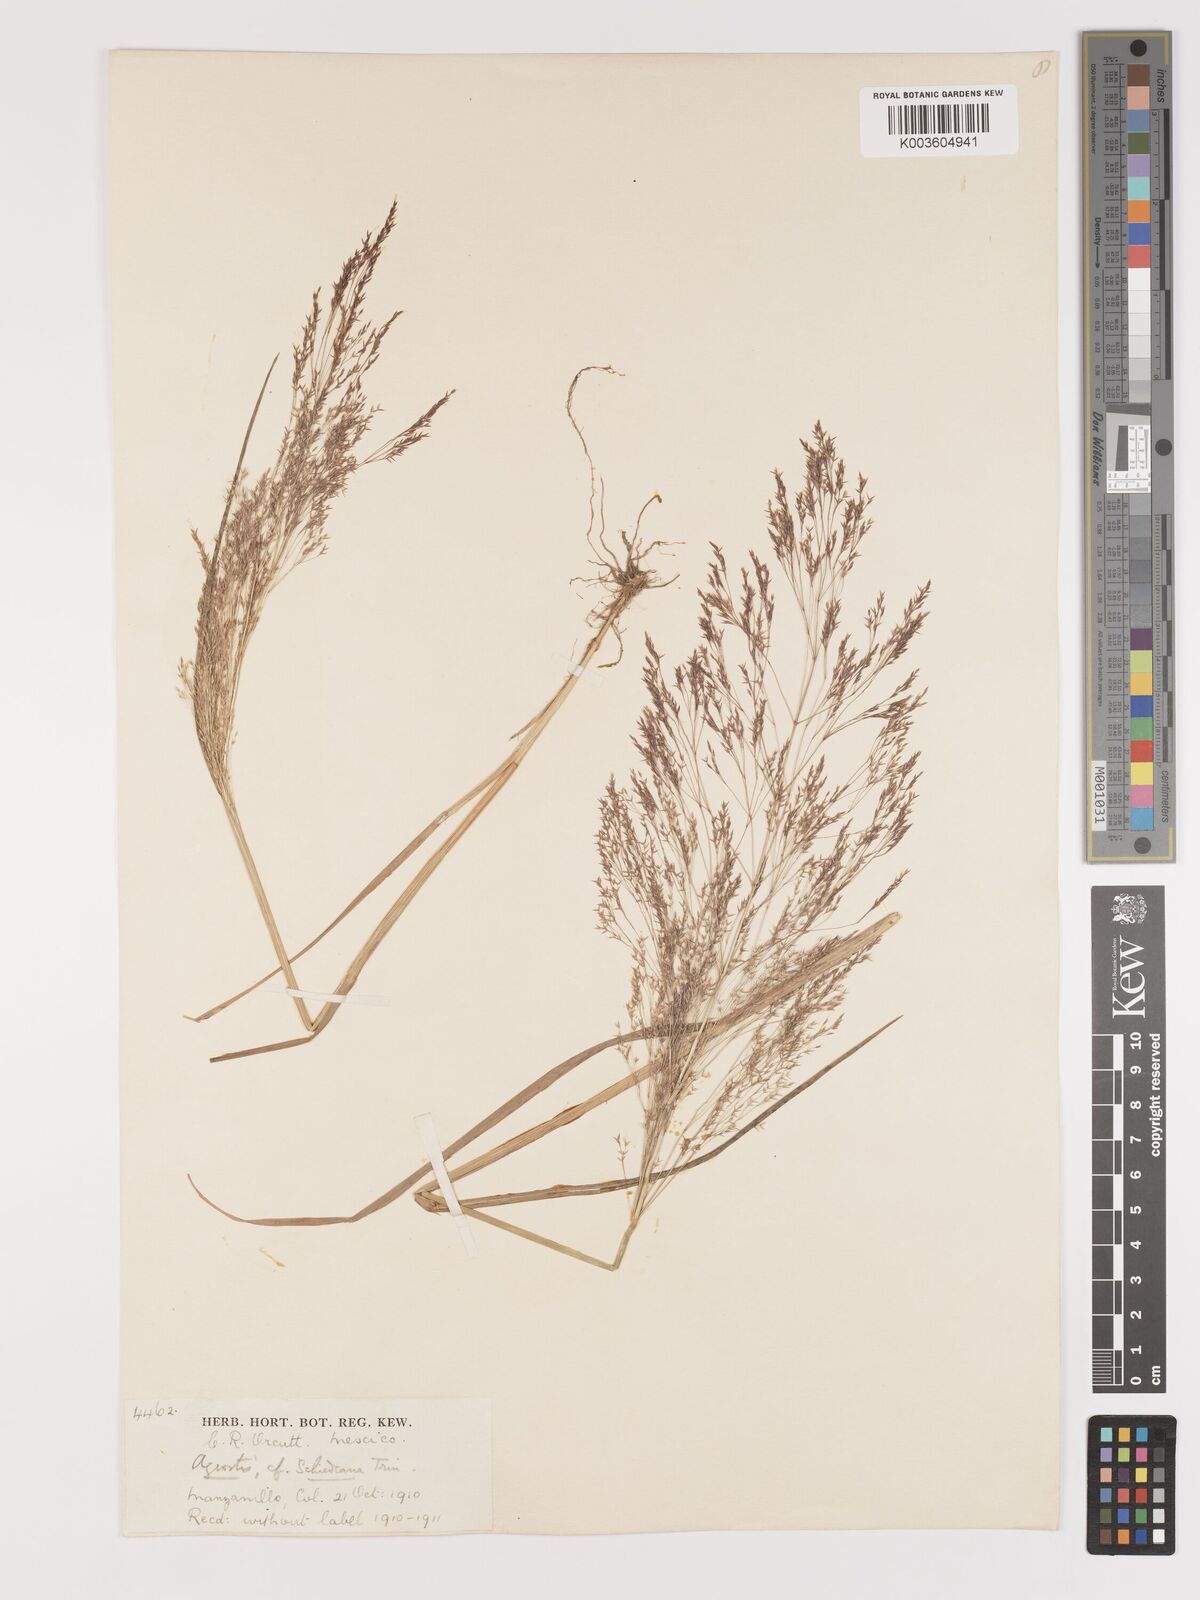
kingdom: Plantae
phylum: Tracheophyta
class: Liliopsida
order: Poales
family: Poaceae
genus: Agrostis
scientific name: Agrostis perennans
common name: Autumn bent
